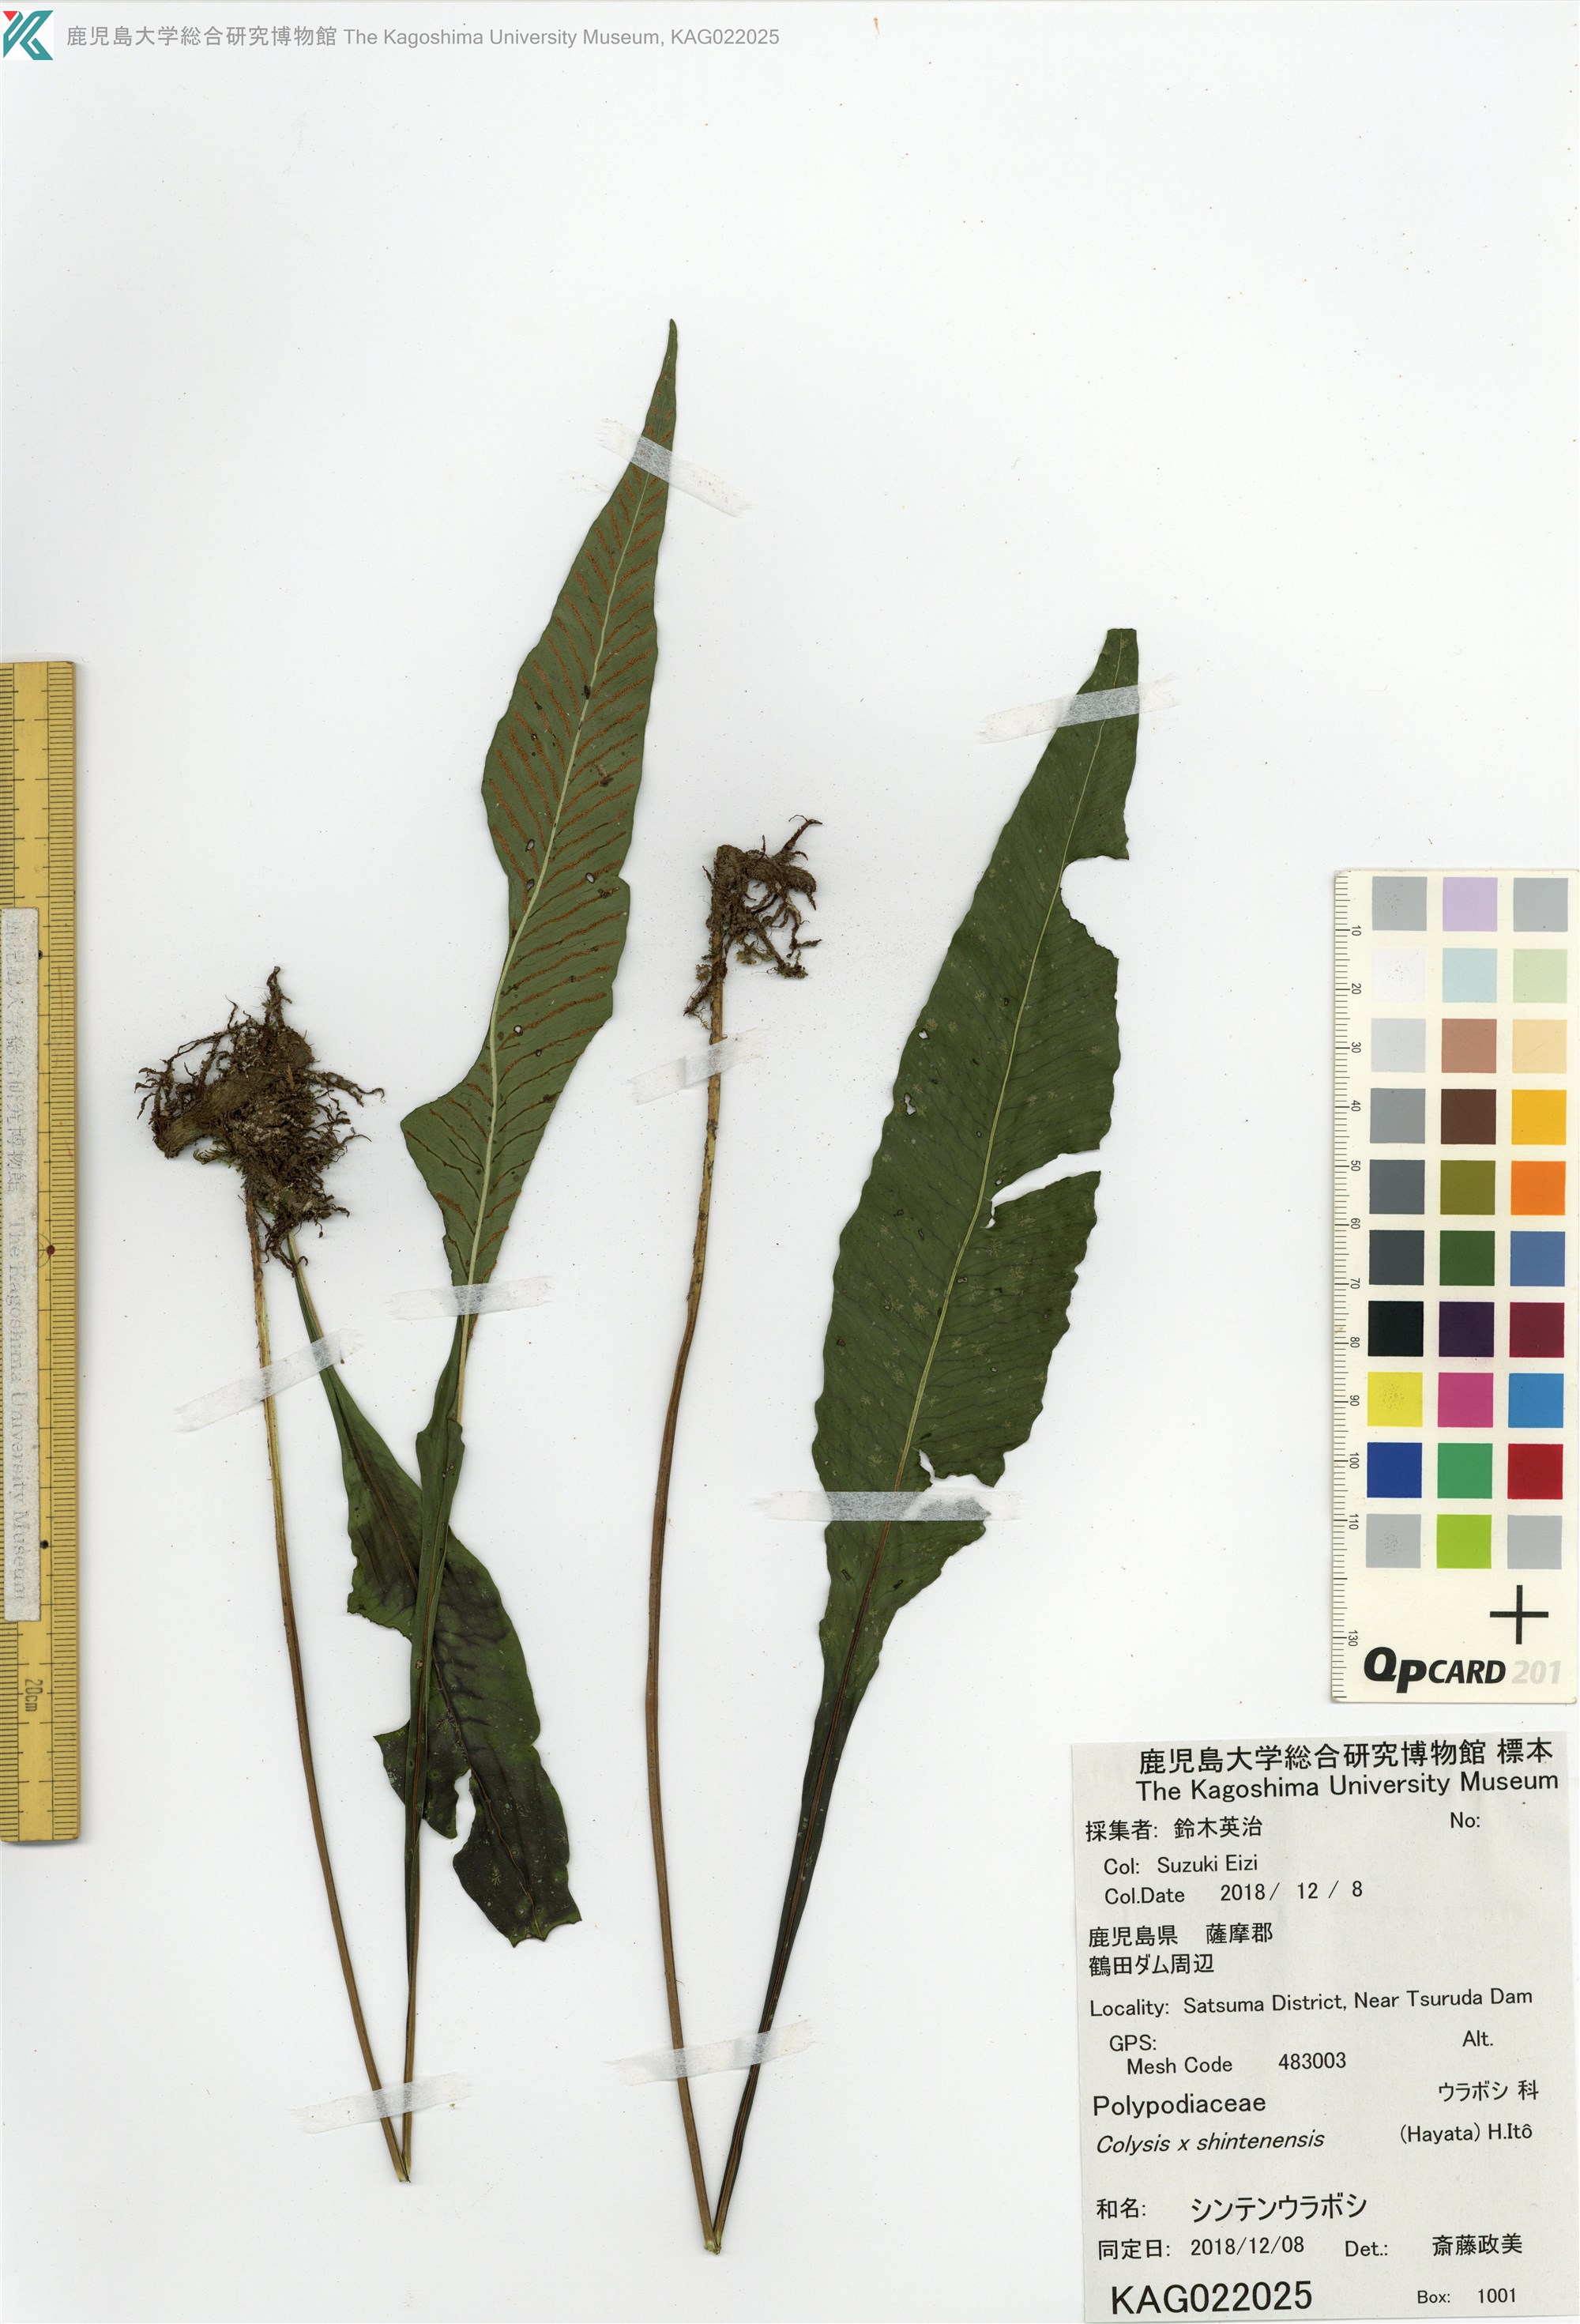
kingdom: Plantae
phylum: Tracheophyta
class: Polypodiopsida
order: Polypodiales
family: Polypodiaceae
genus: Leptochilus
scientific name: Leptochilus shintenensis
